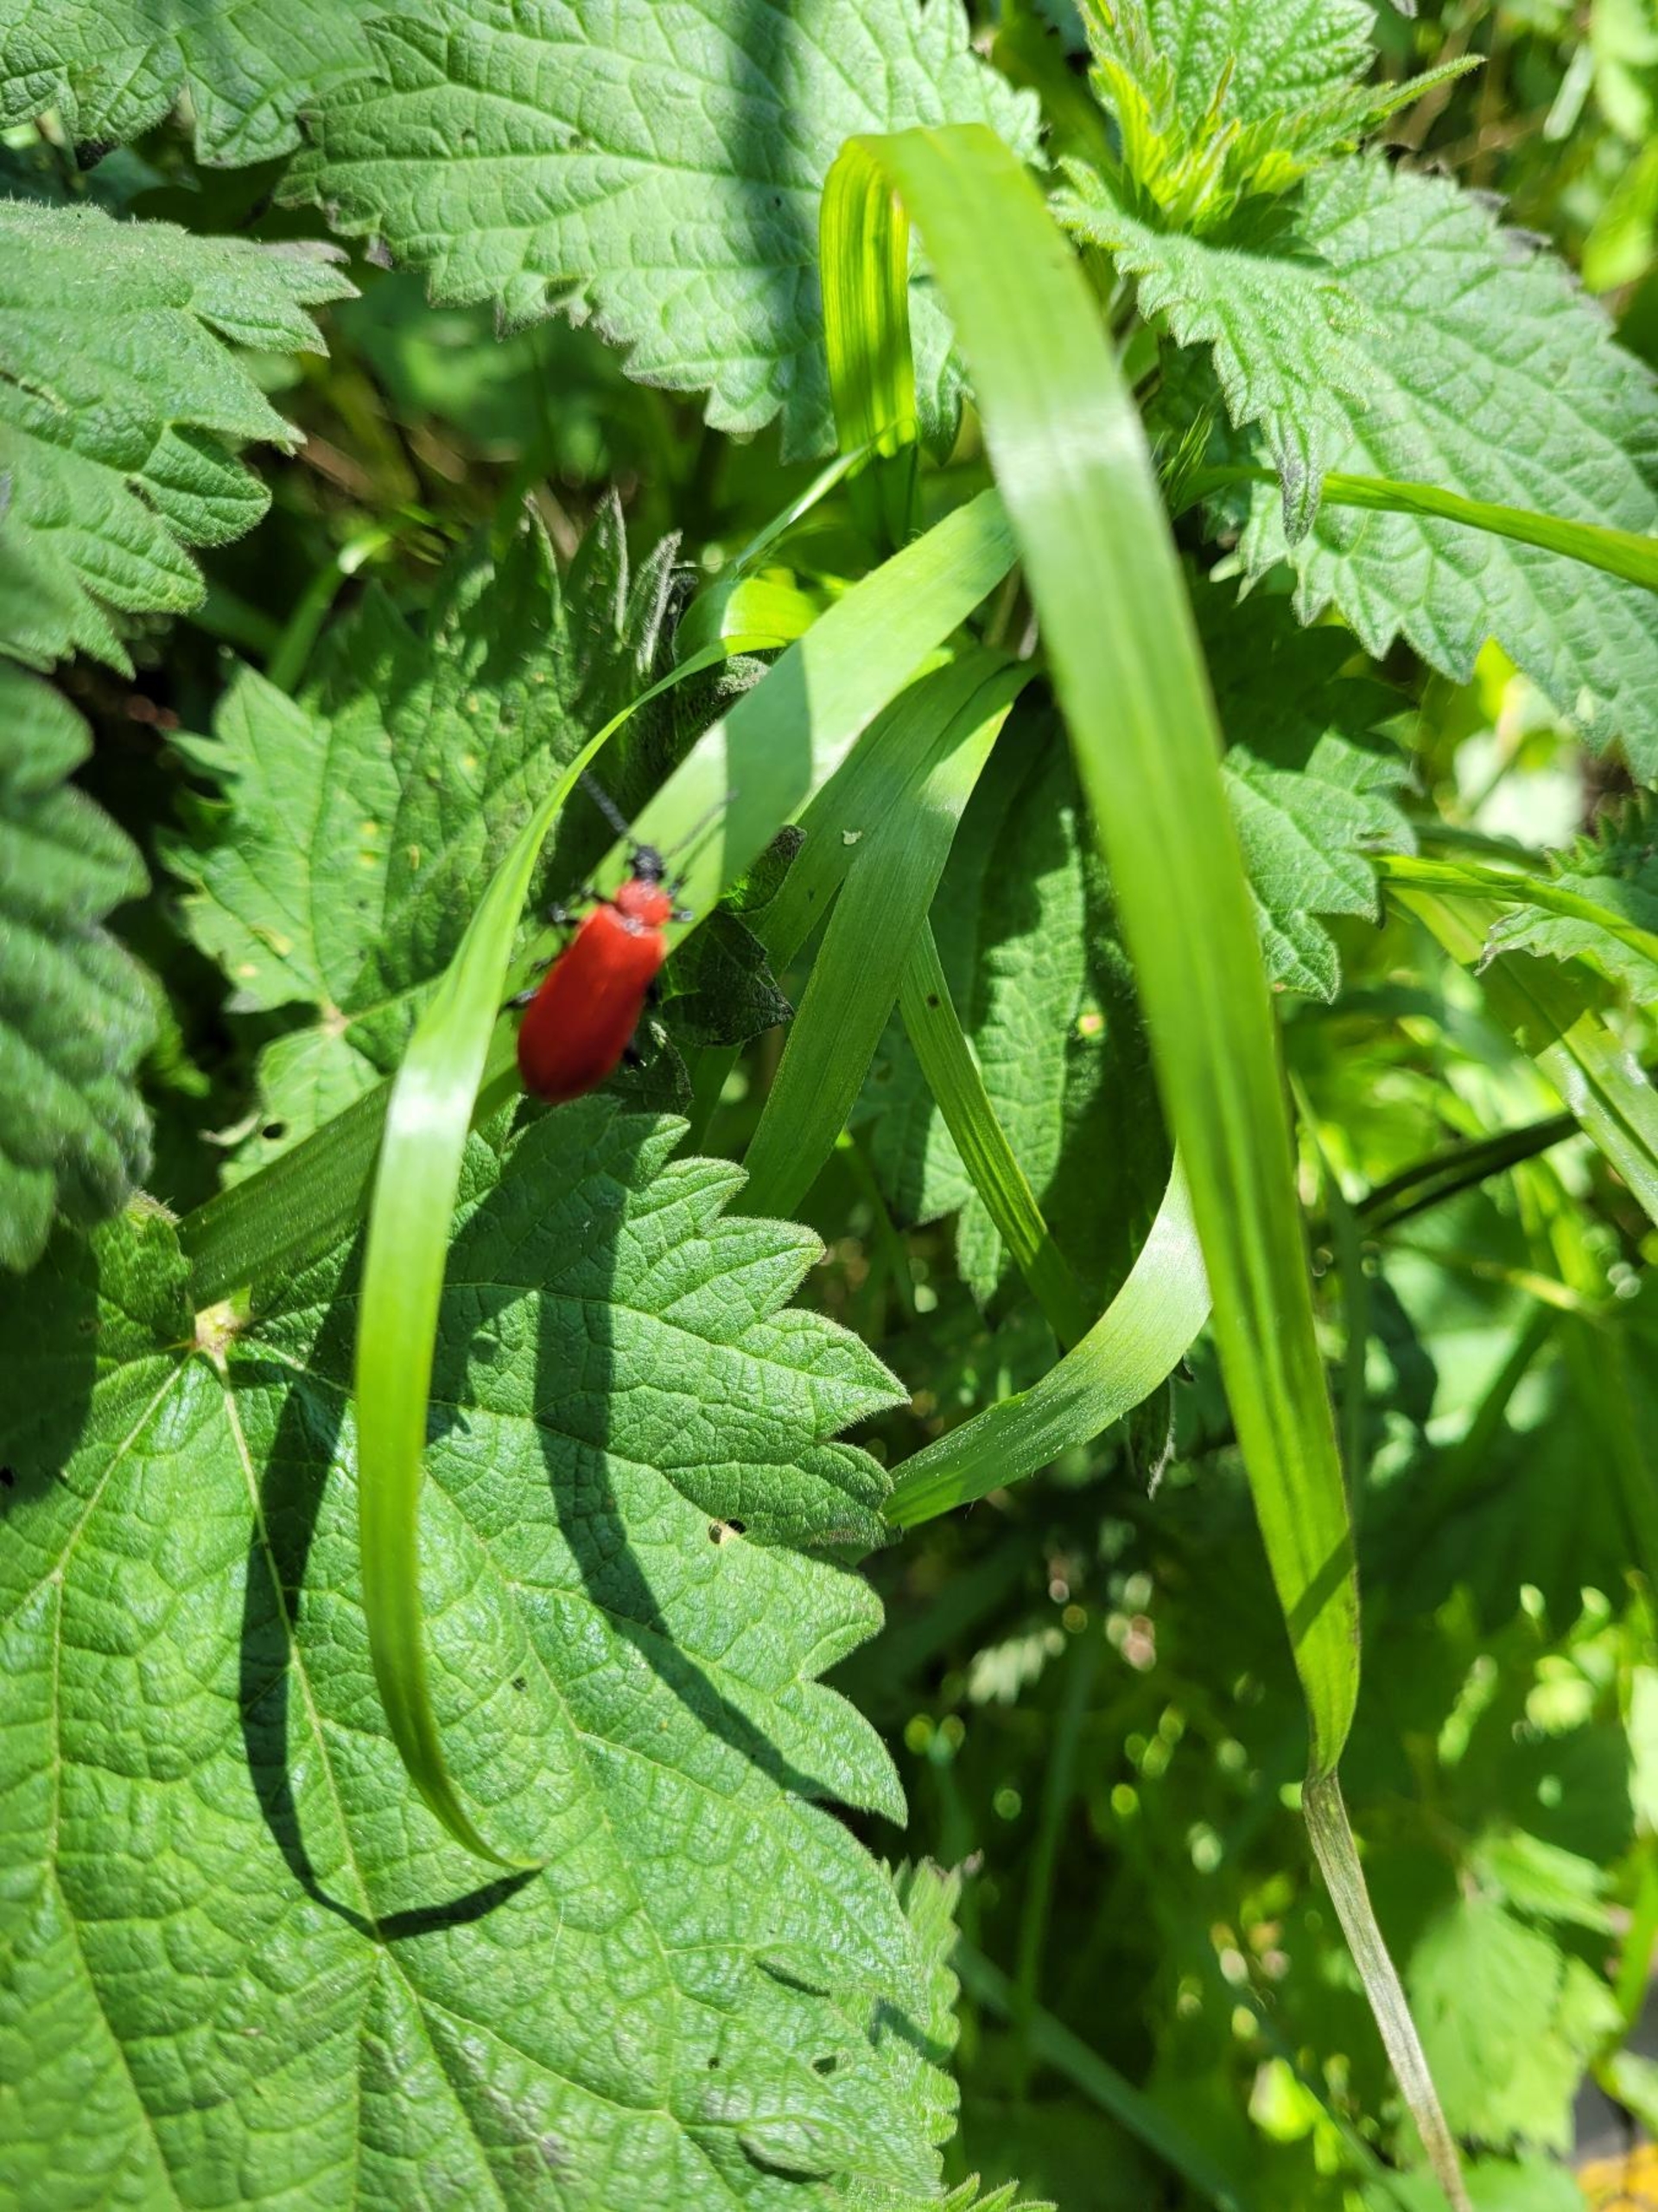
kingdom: Animalia
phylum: Arthropoda
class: Insecta
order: Coleoptera
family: Pyrochroidae
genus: Pyrochroa
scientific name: Pyrochroa coccinea
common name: Sorthovedet kardinalbille
